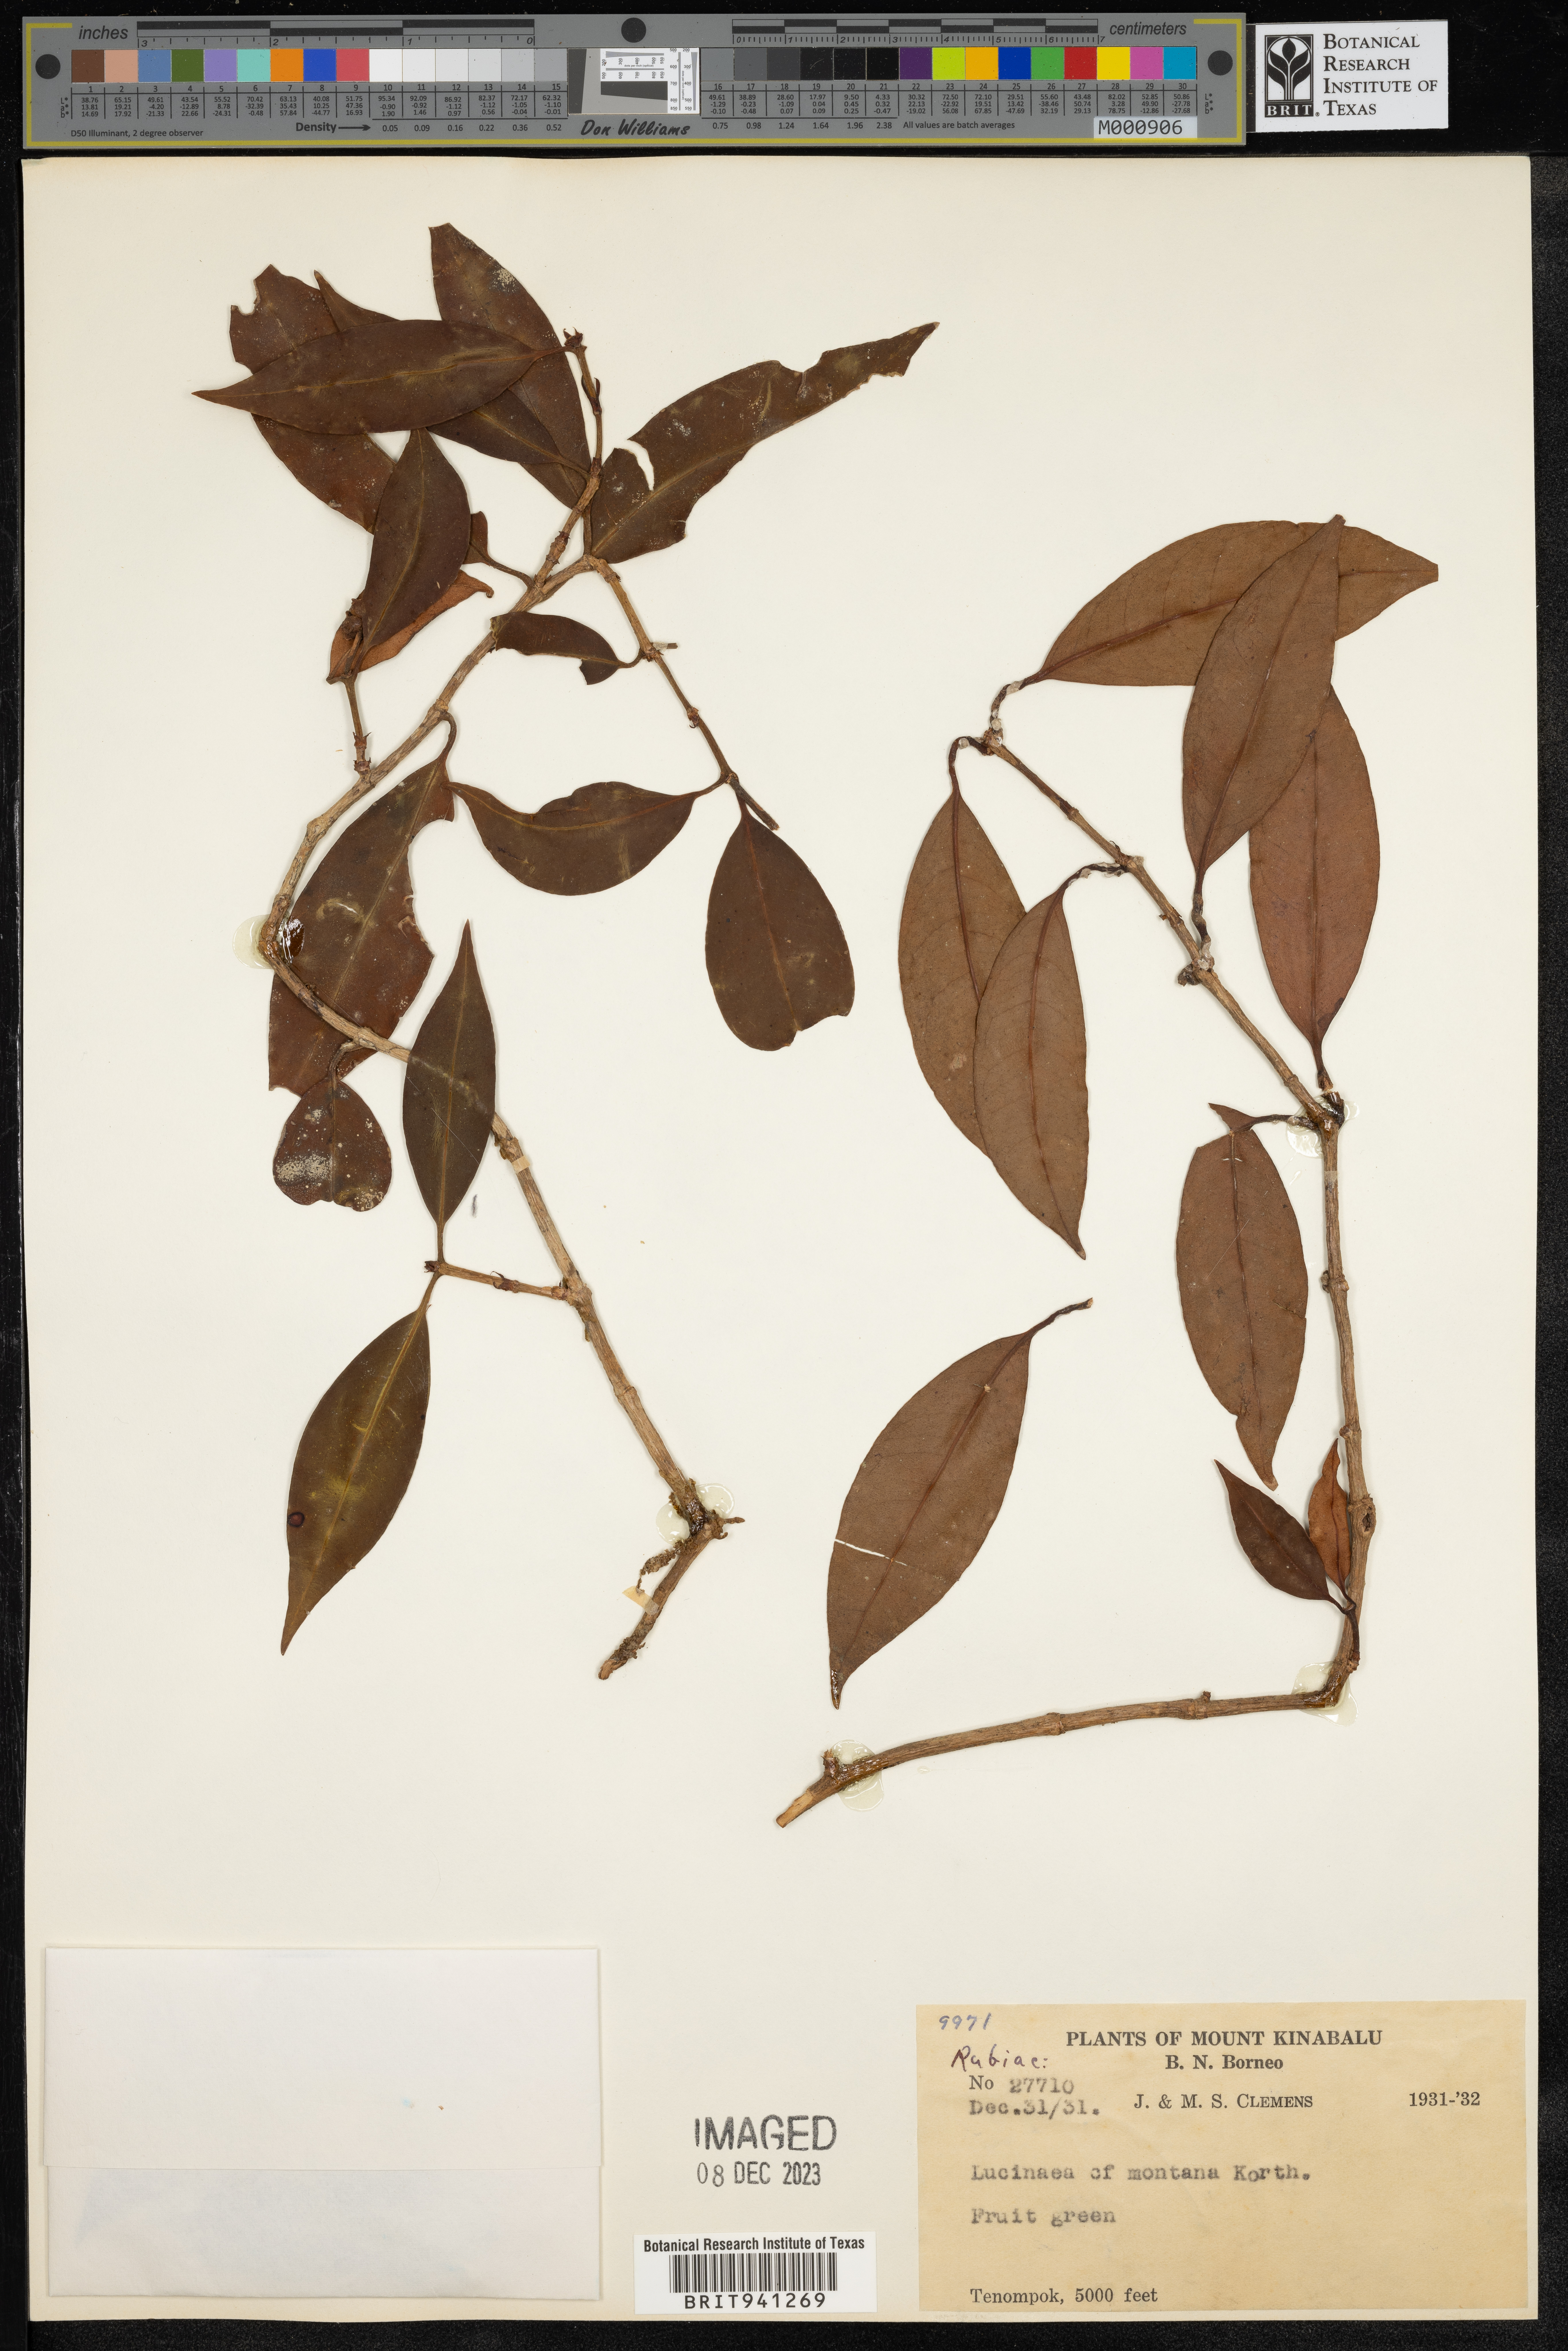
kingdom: Plantae
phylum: Tracheophyta
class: Magnoliopsida
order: Gentianales
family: Rubiaceae
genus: Schradera
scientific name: Schradera
